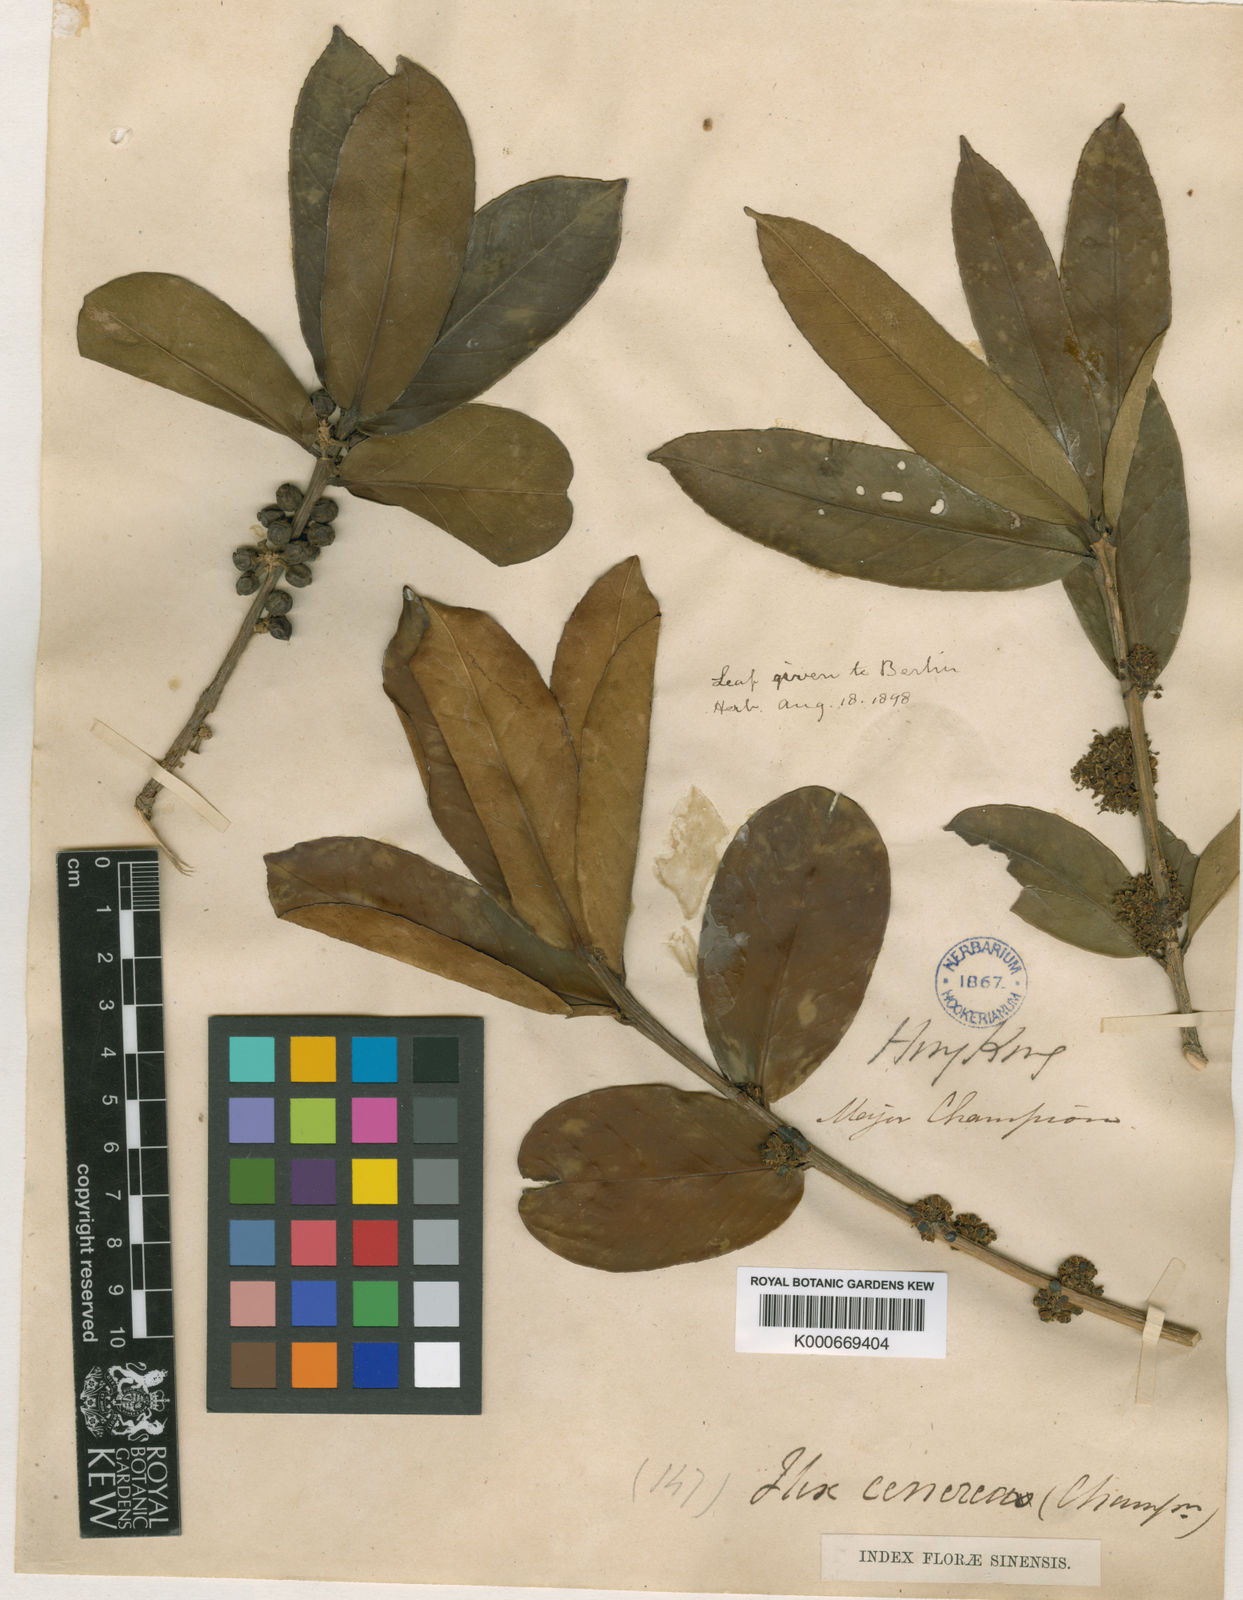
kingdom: Plantae
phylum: Tracheophyta
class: Magnoliopsida
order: Aquifoliales
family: Aquifoliaceae
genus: Ilex
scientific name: Ilex cinerea
